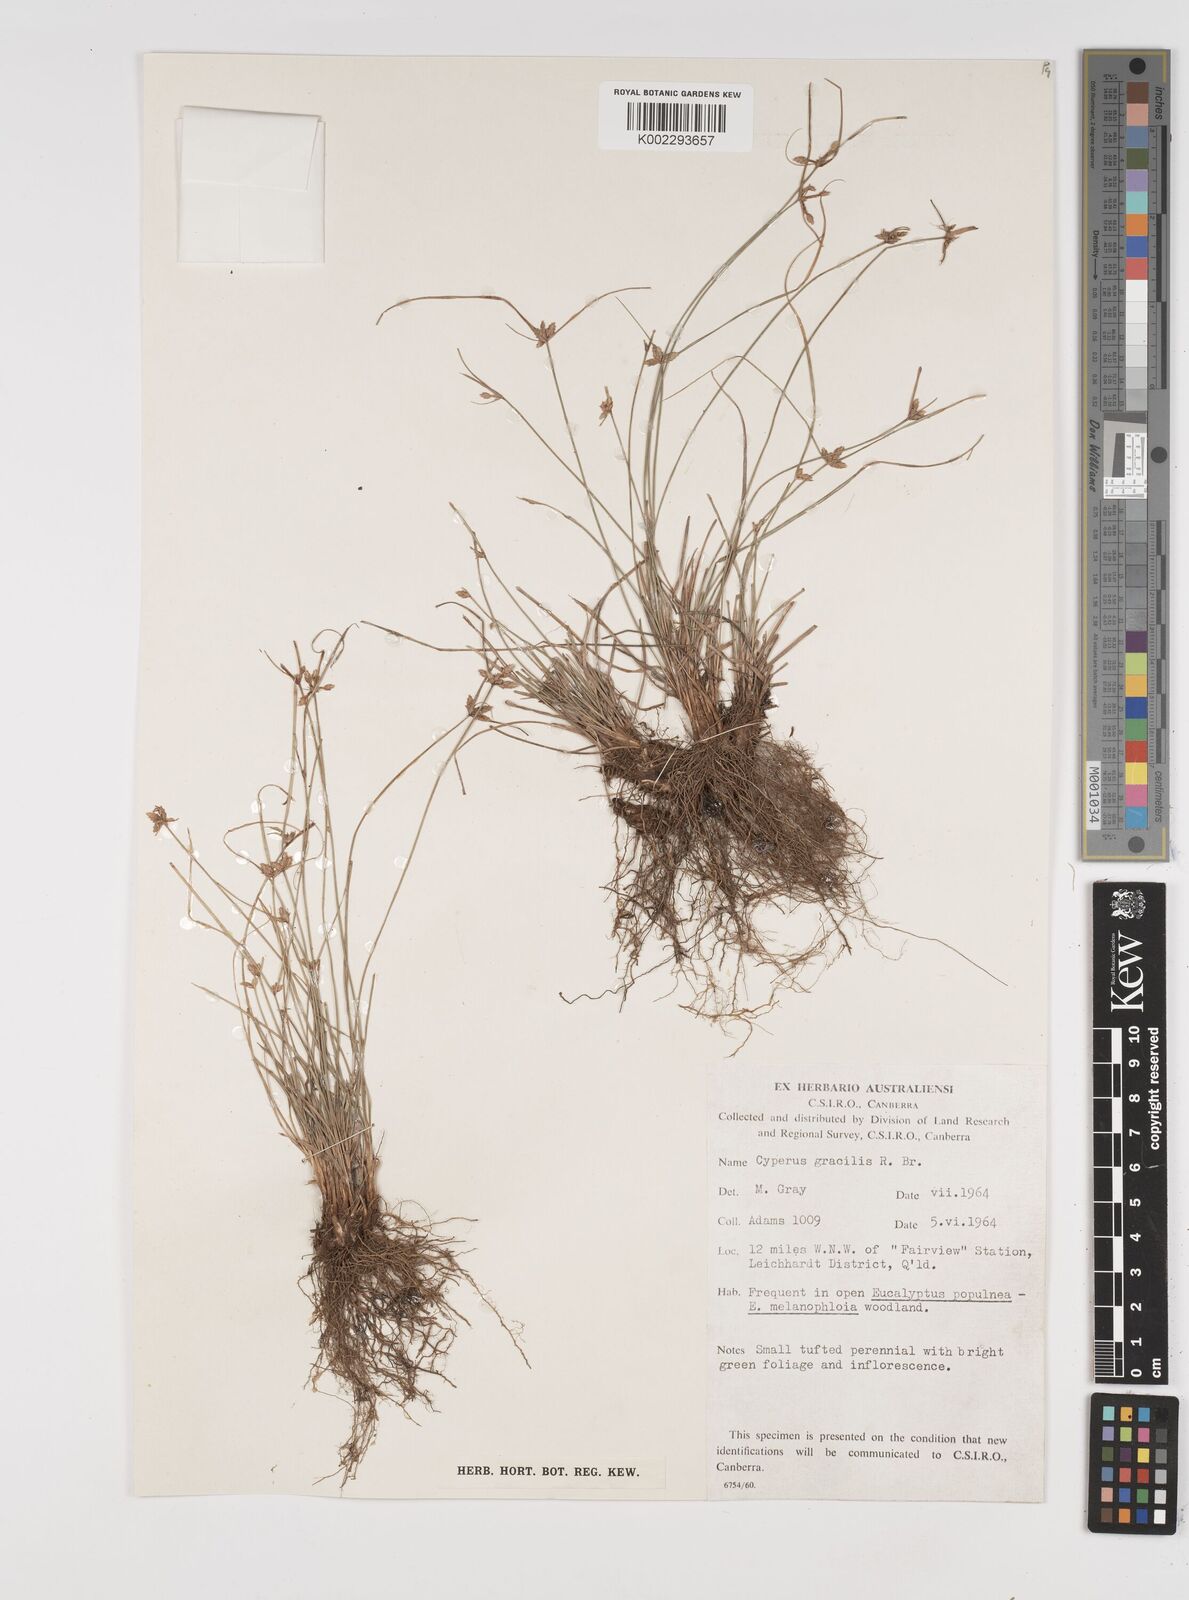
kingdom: Plantae
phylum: Tracheophyta
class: Liliopsida
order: Poales
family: Cyperaceae
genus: Cyperus
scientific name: Cyperus gracilis
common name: Slimjim flatsedge
